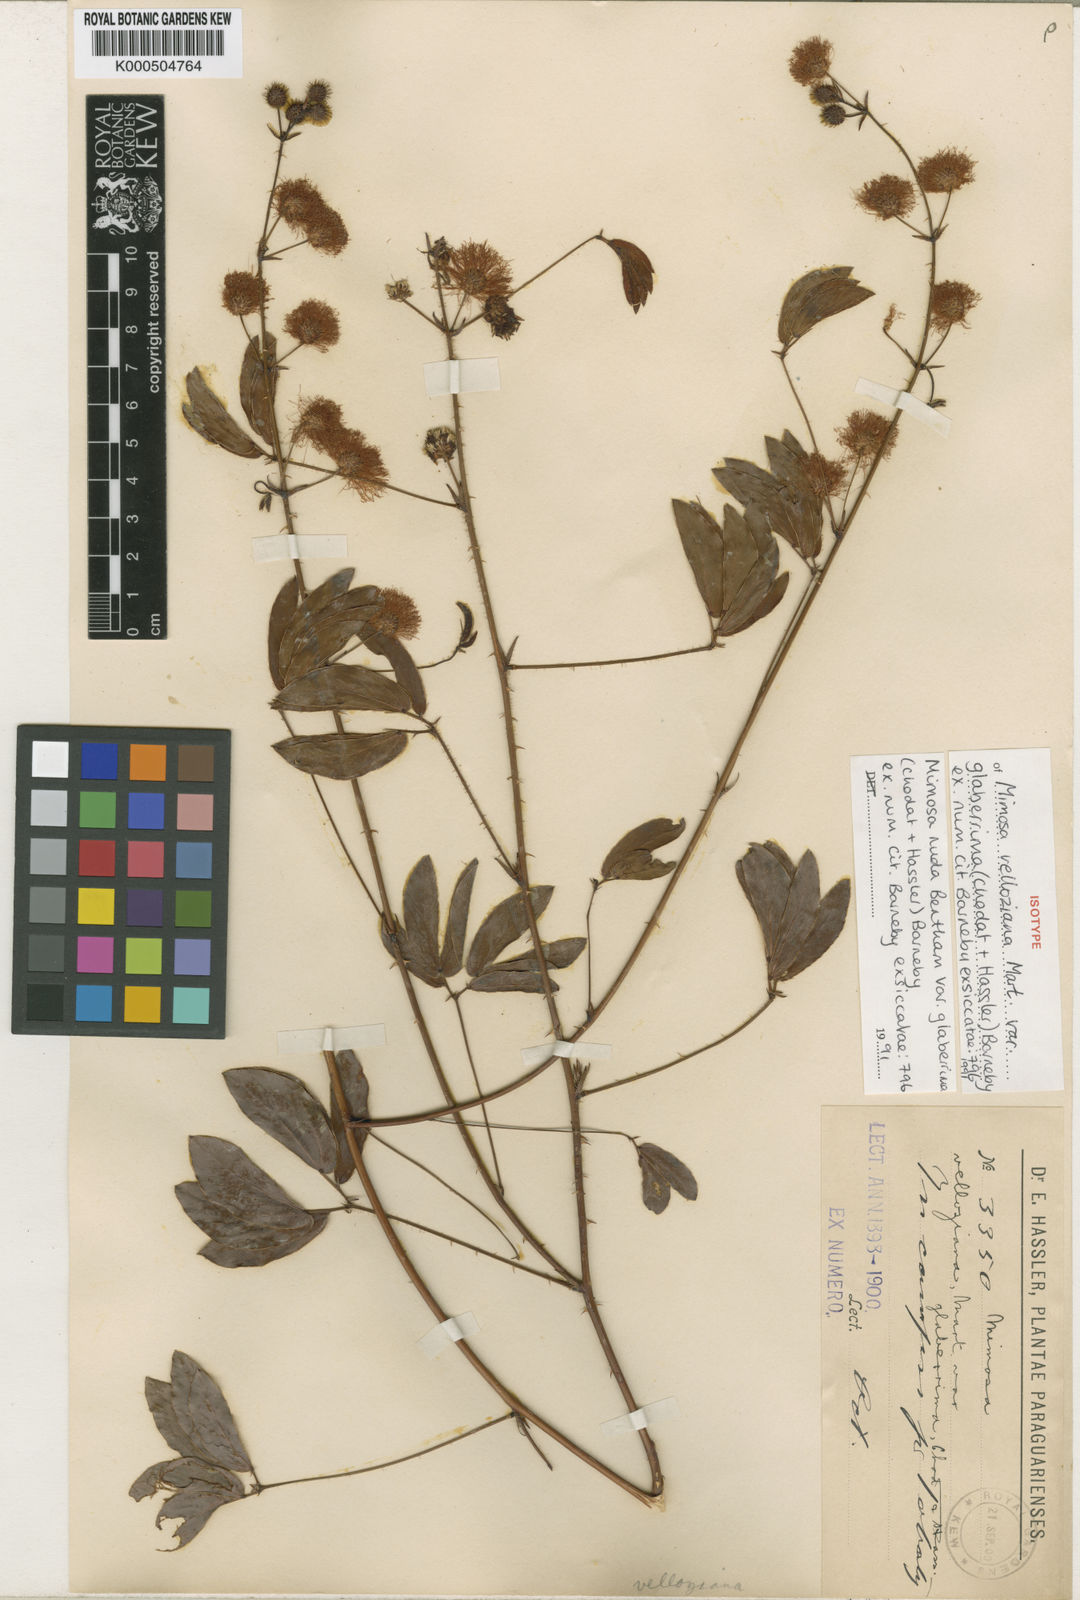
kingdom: Plantae
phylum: Tracheophyta
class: Magnoliopsida
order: Fabales
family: Fabaceae
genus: Mimosa
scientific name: Mimosa debilis
